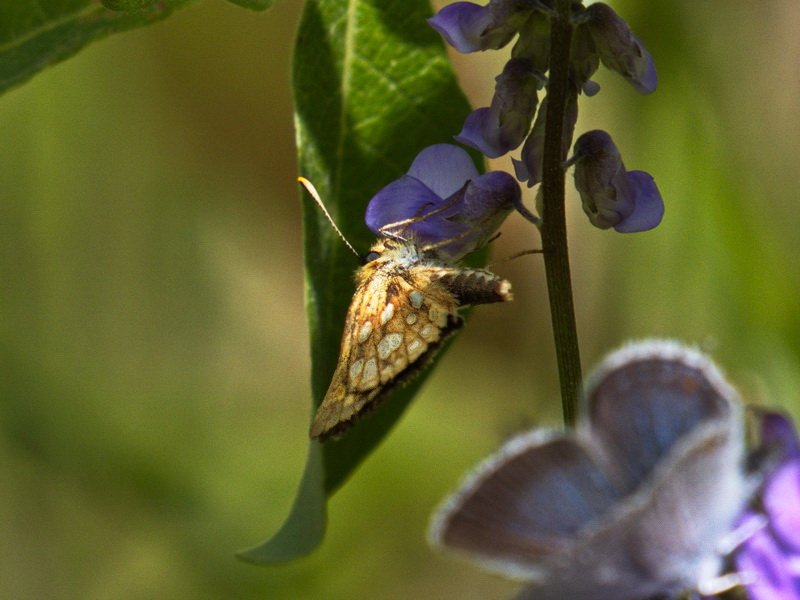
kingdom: Animalia
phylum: Arthropoda
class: Insecta
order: Lepidoptera
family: Hesperiidae
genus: Carterocephalus
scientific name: Carterocephalus palaemon
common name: Chequered Skipper
